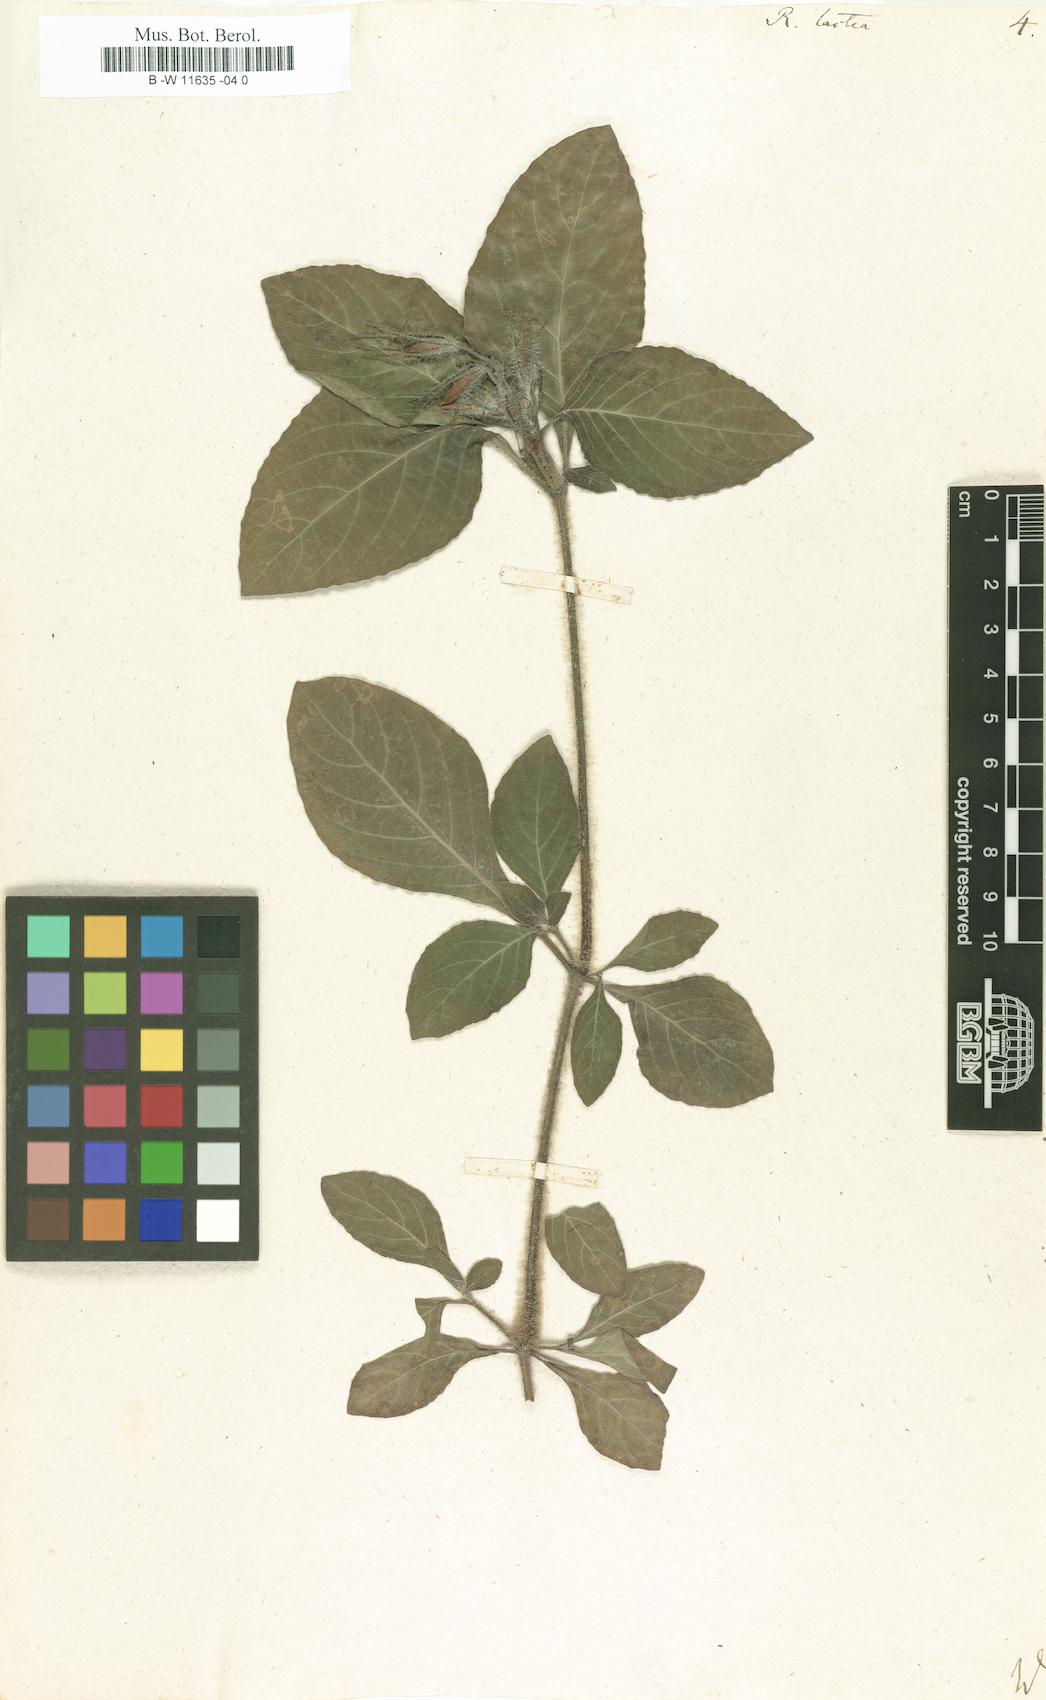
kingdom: Plantae
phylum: Tracheophyta
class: Magnoliopsida
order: Lamiales
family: Acanthaceae
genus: Ruellia
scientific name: Ruellia lactea
